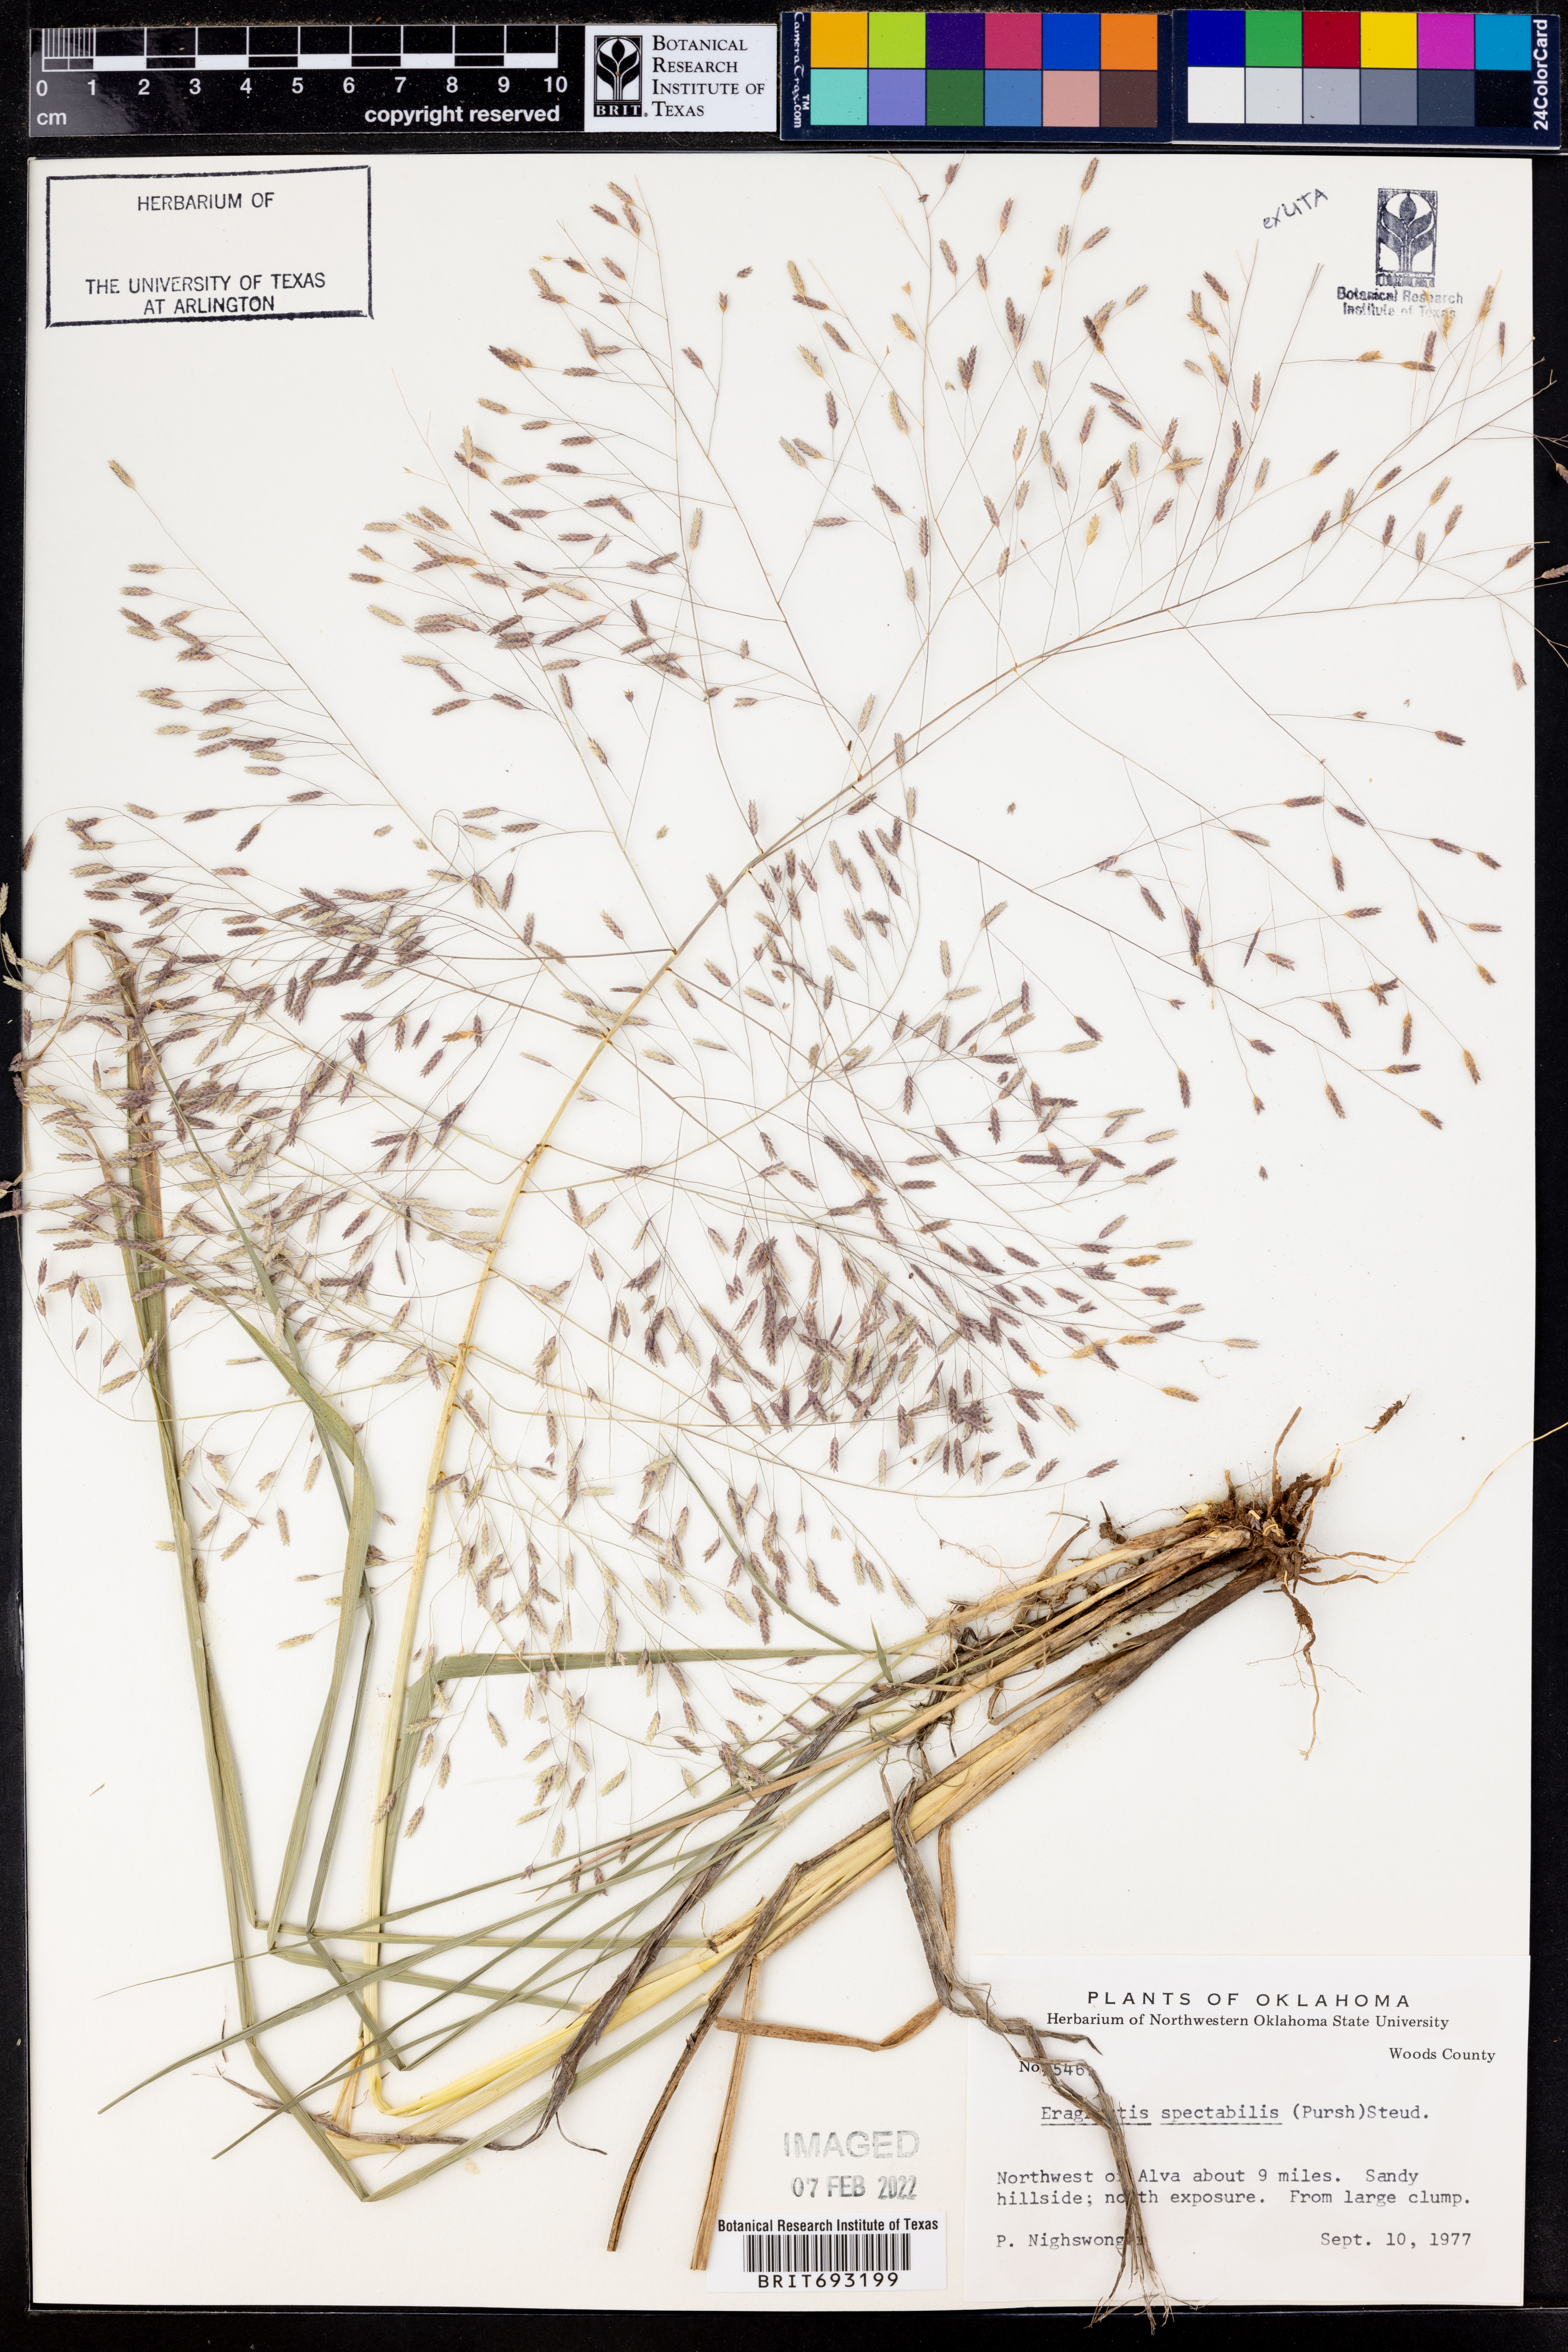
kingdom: Plantae
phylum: Tracheophyta
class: Liliopsida
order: Poales
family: Poaceae
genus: Eragrostis
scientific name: Eragrostis spectabilis
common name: Petticoat-climber
